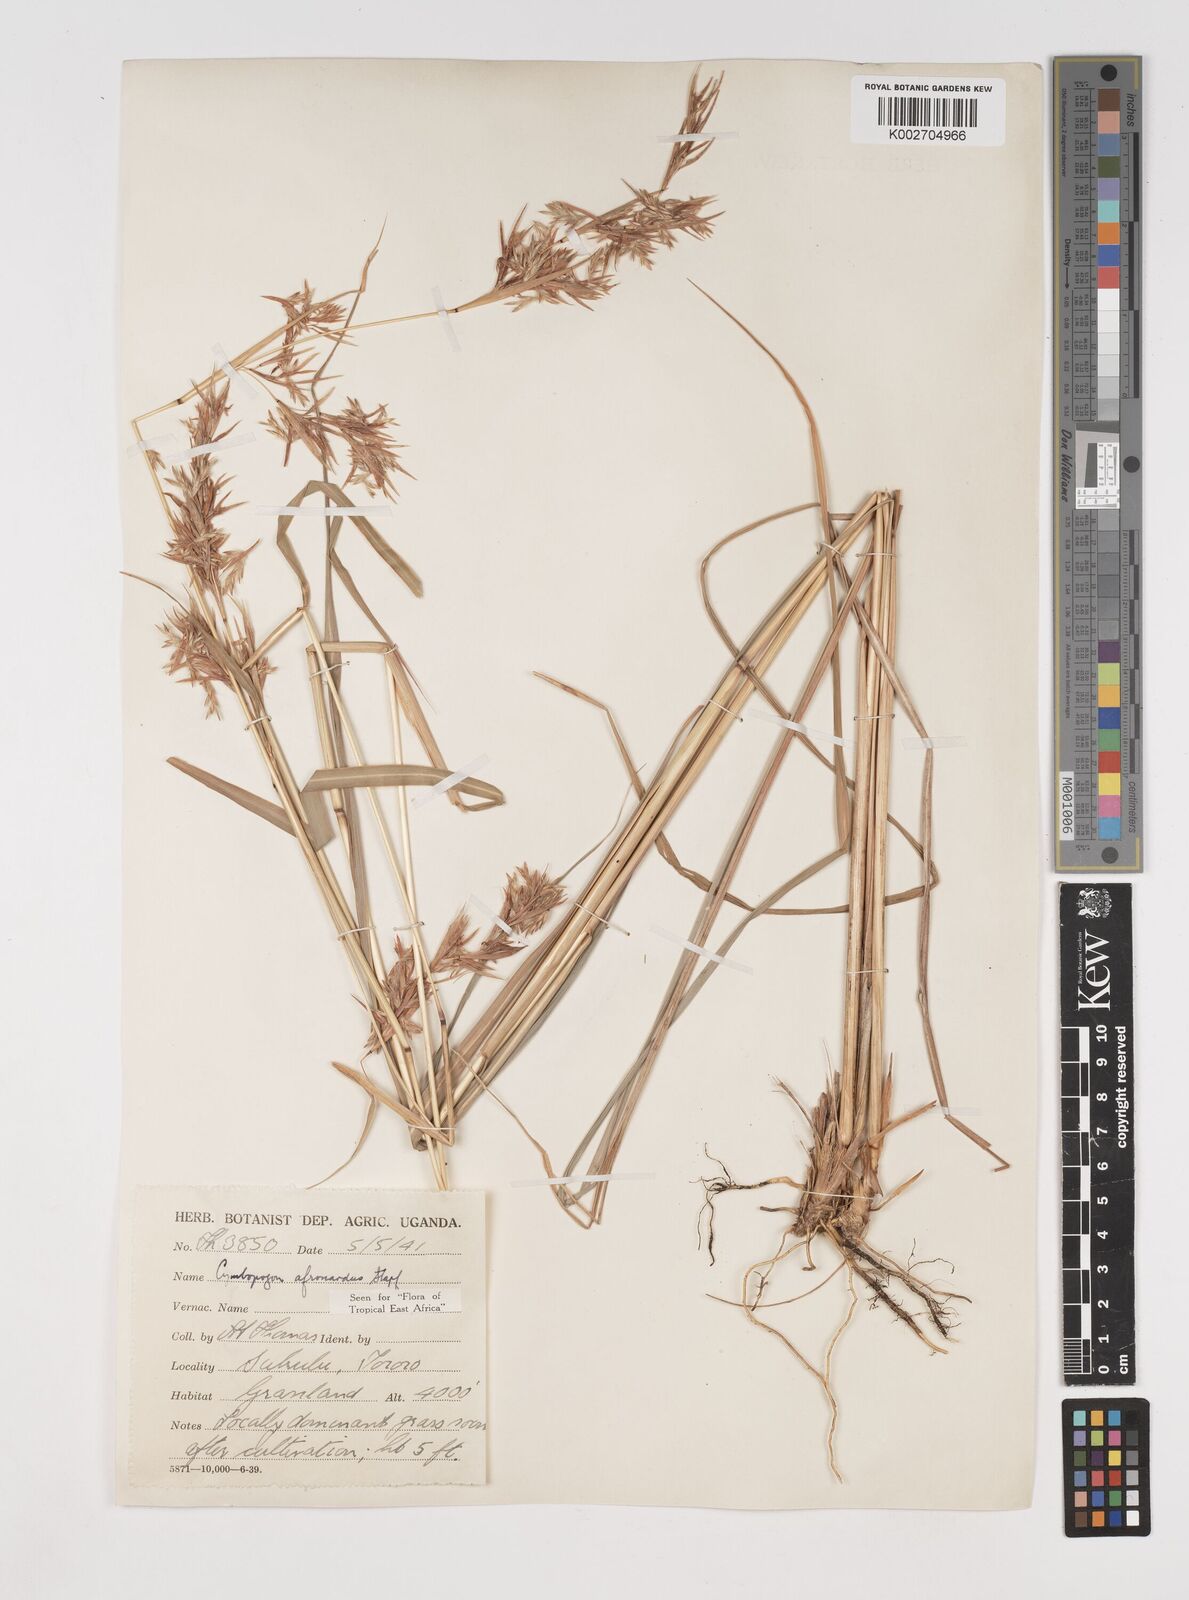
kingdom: Plantae
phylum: Tracheophyta
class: Liliopsida
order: Poales
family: Poaceae
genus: Cymbopogon
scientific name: Cymbopogon nardus
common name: Giant turpentine grass
